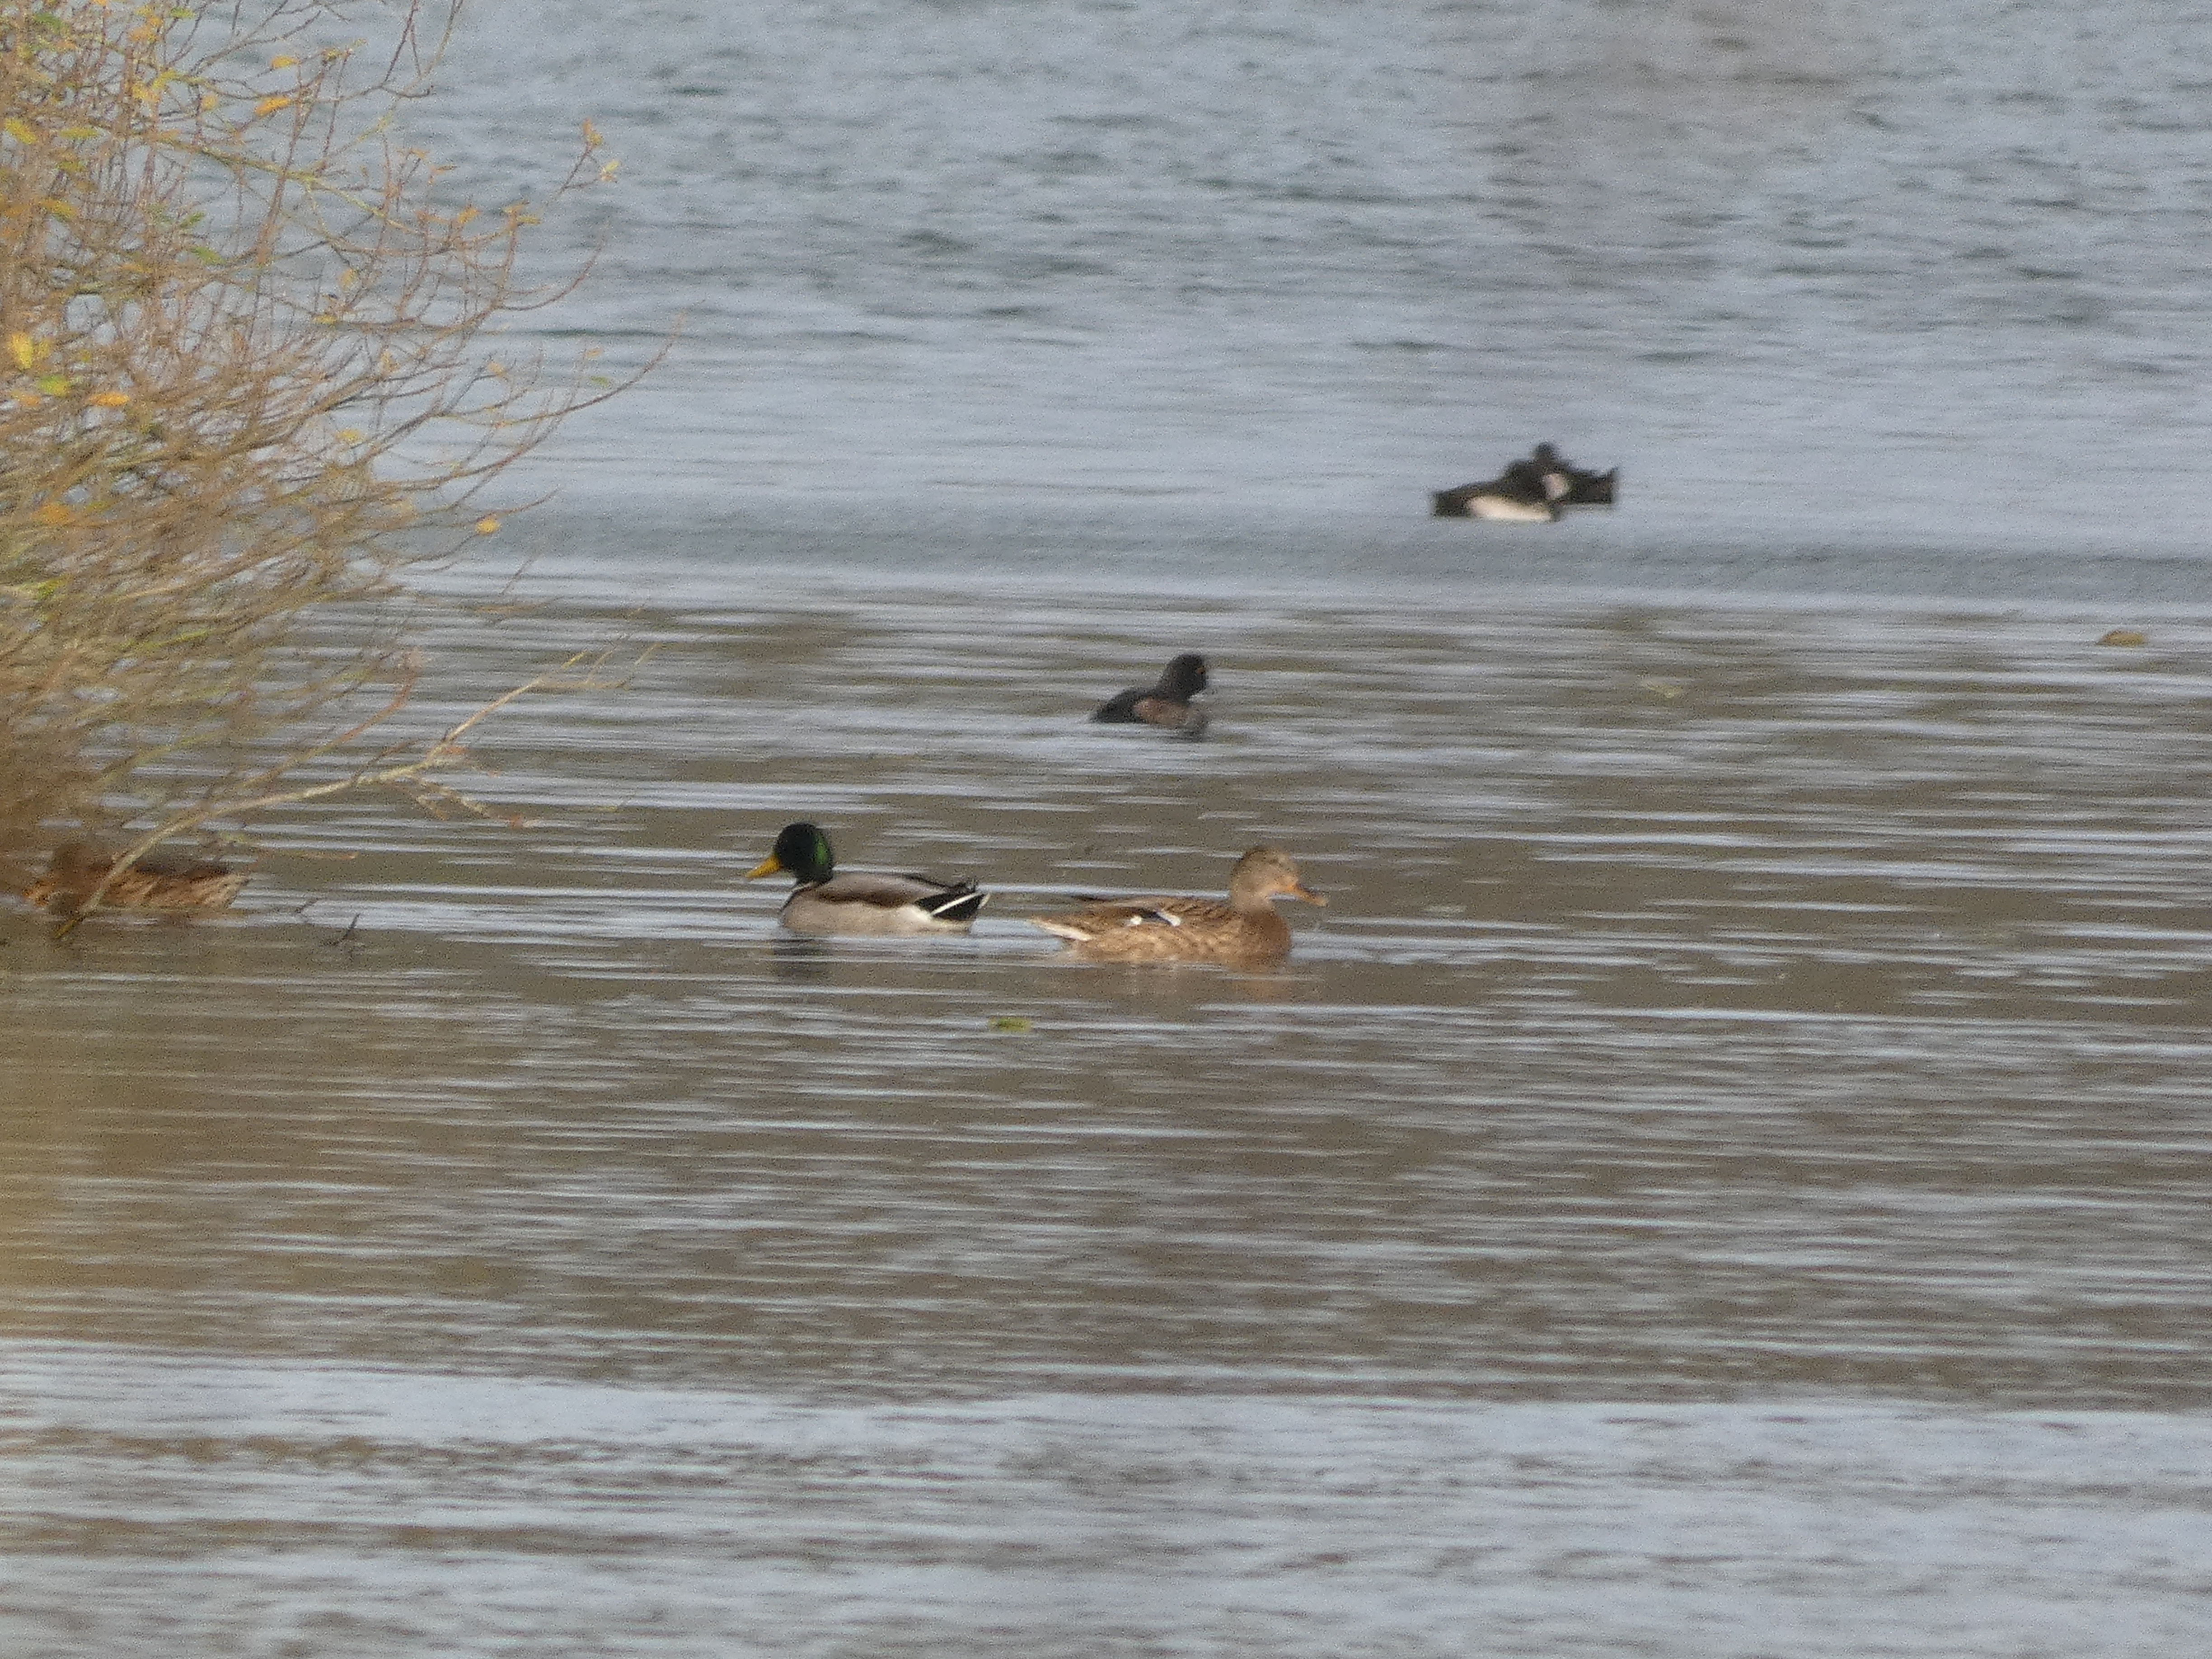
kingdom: Animalia
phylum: Chordata
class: Aves
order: Anseriformes
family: Anatidae
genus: Anas
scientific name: Anas platyrhynchos
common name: Gråand
